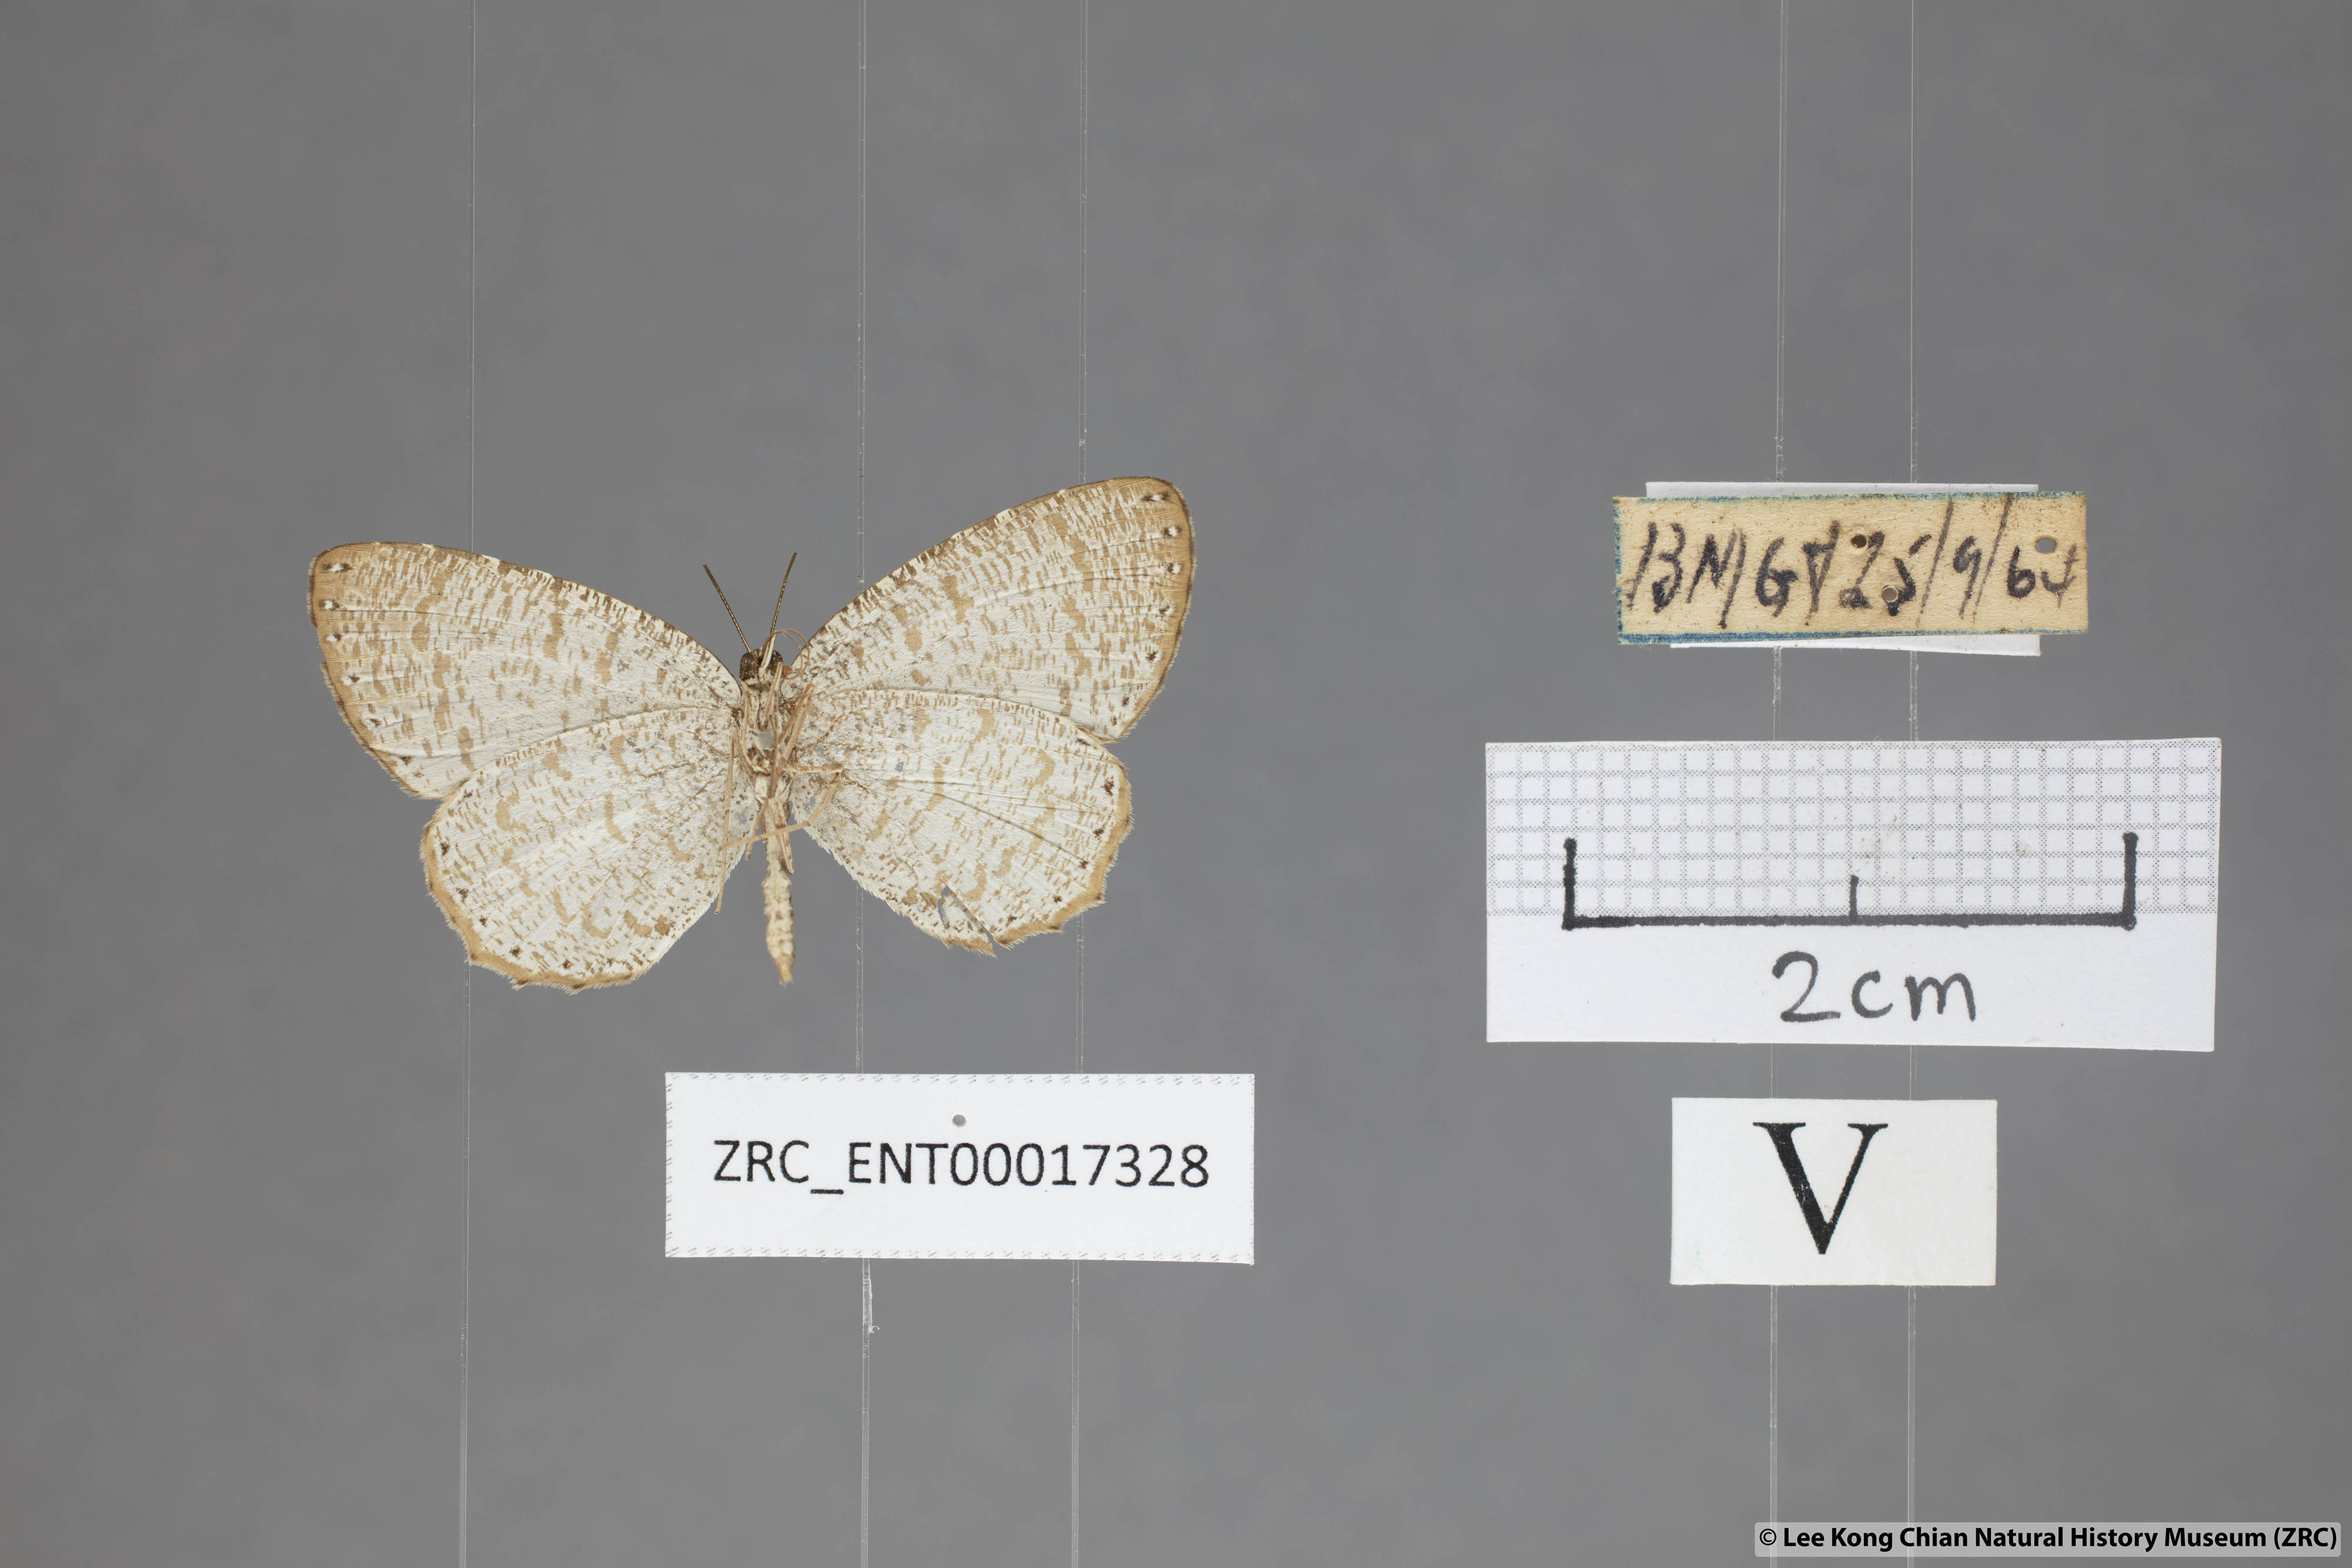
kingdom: Animalia
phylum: Arthropoda
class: Insecta
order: Lepidoptera
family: Lycaenidae
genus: Allotinus
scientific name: Allotinus sarastes
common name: Peninsular darkie
